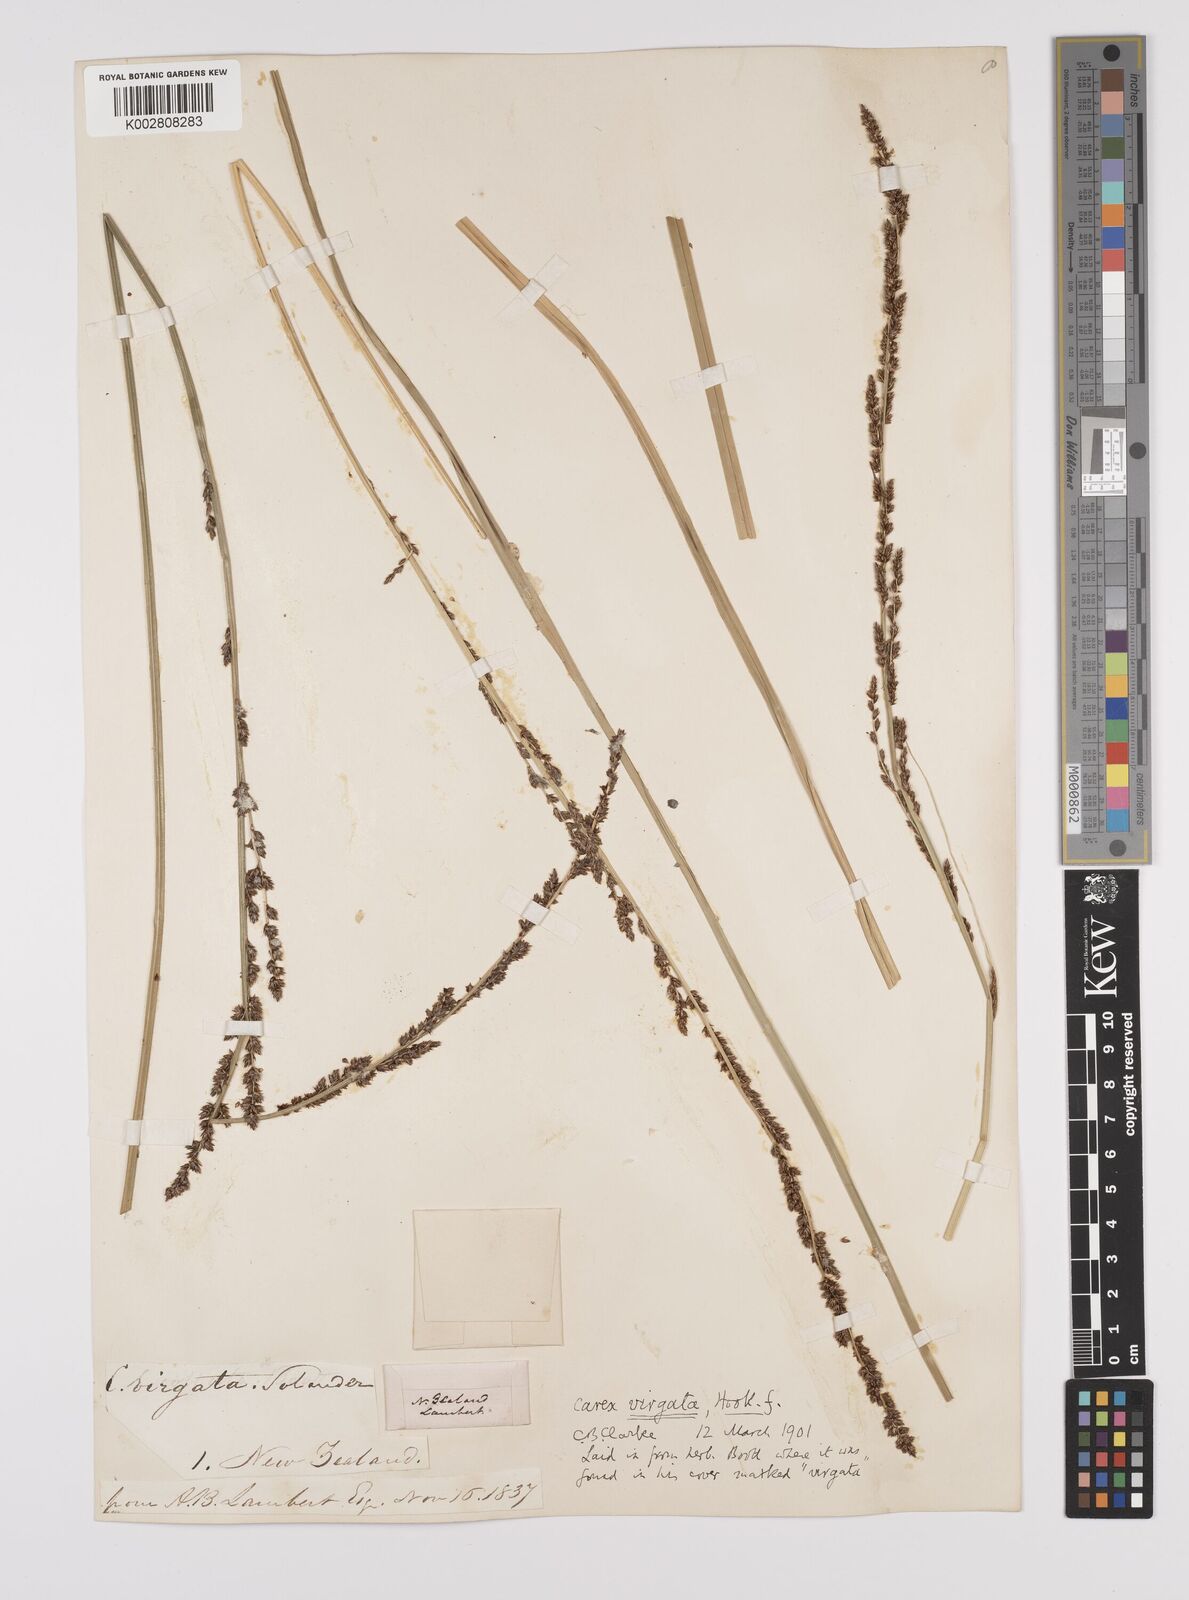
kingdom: Plantae
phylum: Tracheophyta
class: Liliopsida
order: Poales
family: Cyperaceae
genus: Carex
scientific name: Carex appressa
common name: Tussock sedge
